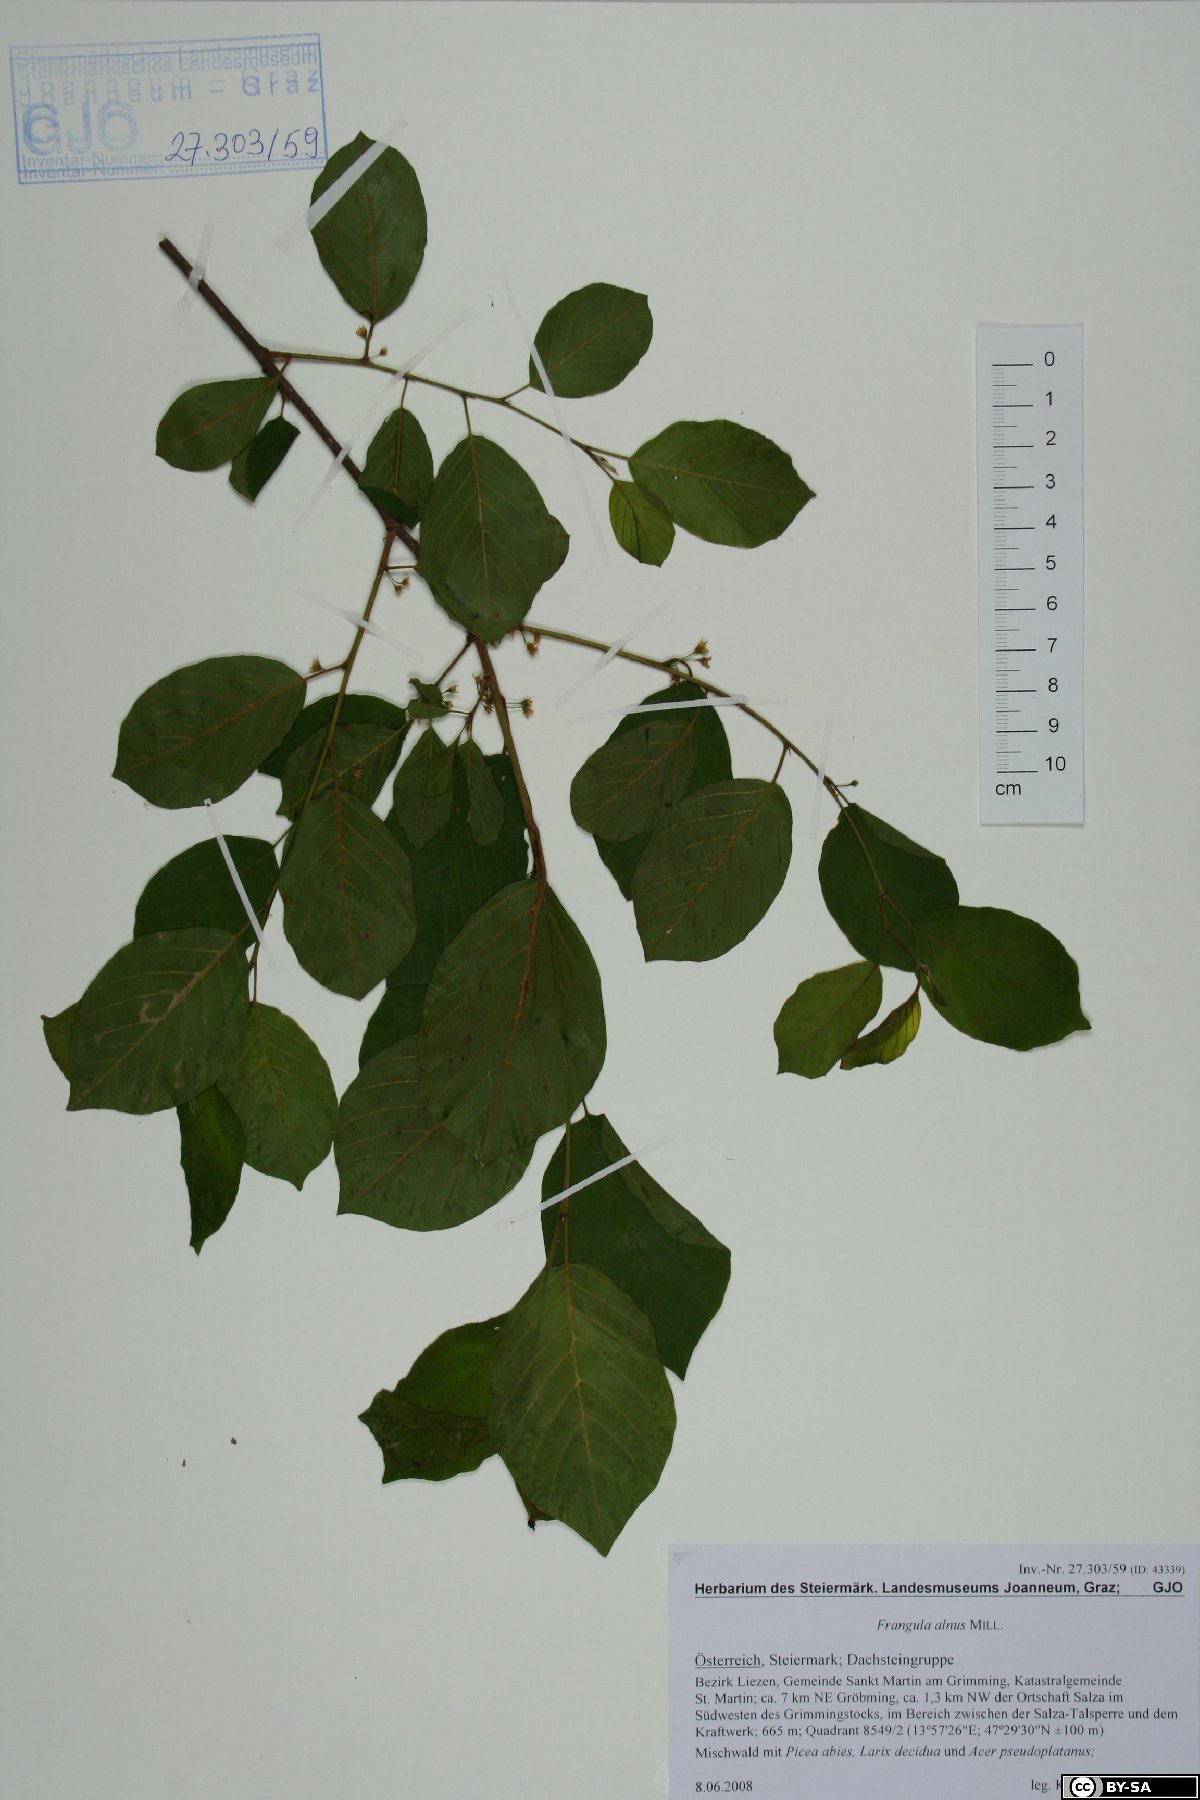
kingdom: Plantae
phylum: Tracheophyta
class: Magnoliopsida
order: Rosales
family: Rhamnaceae
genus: Frangula
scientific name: Frangula alnus
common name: Alder buckthorn
